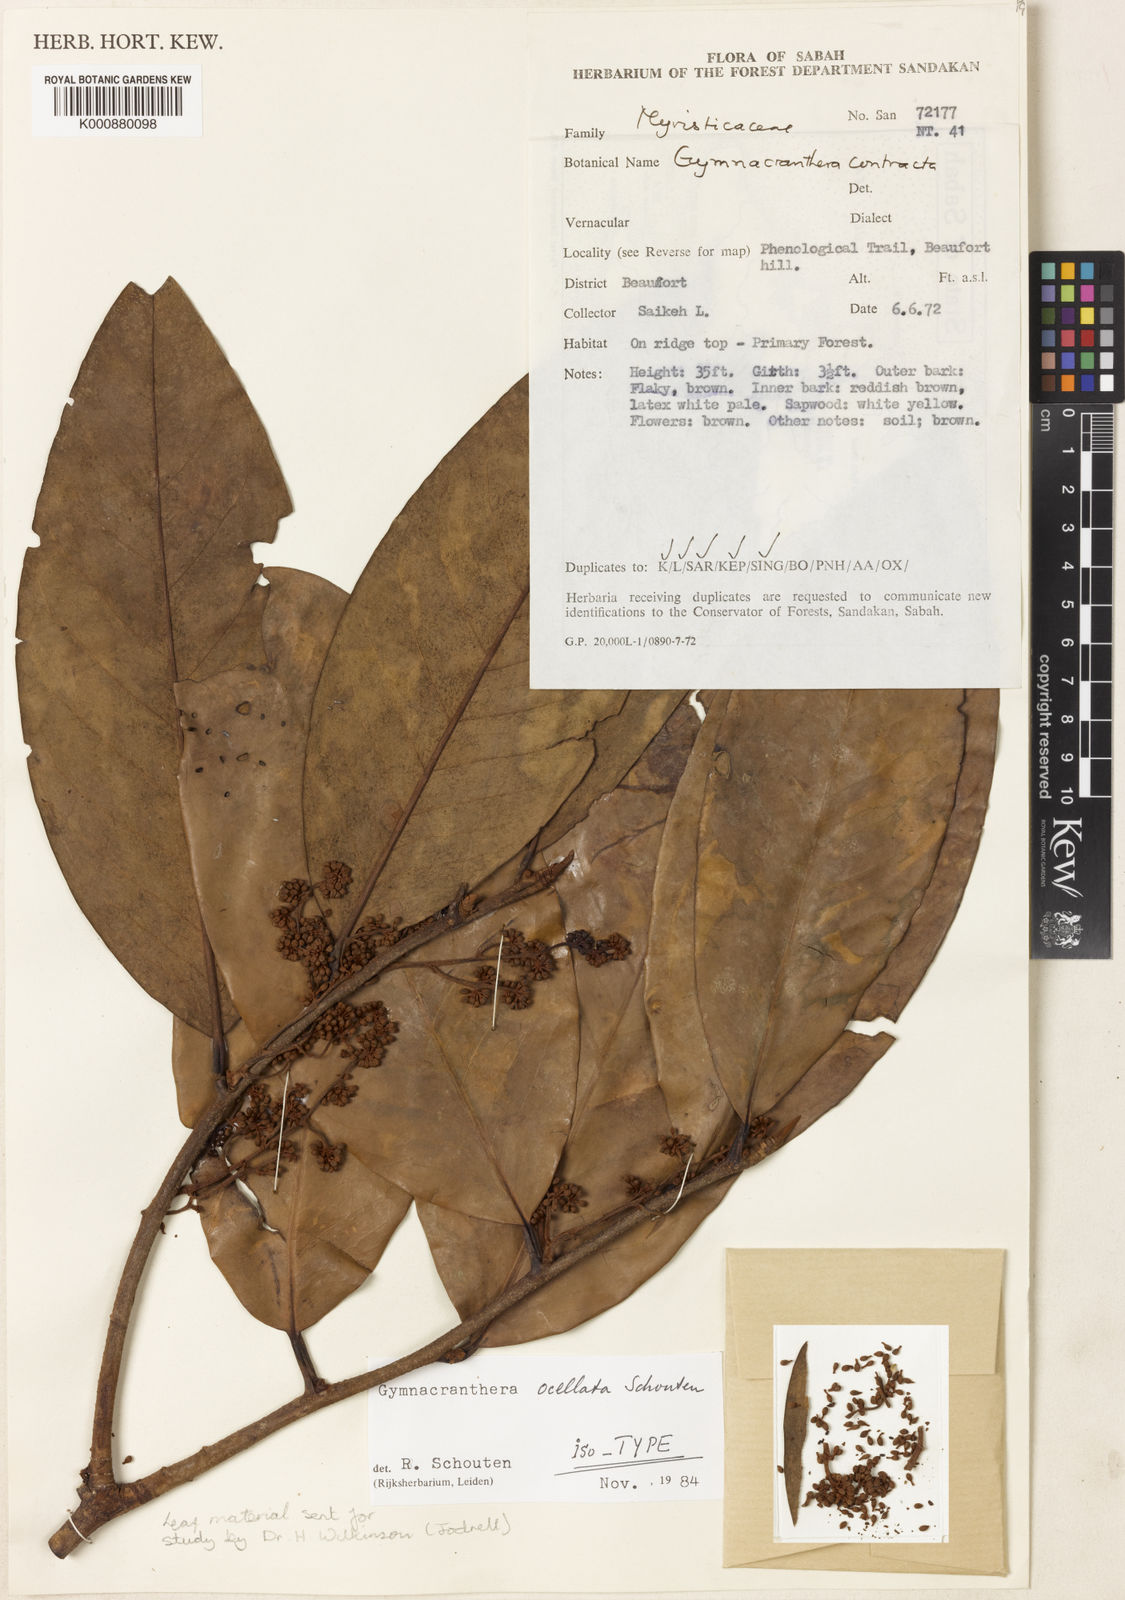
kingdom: Plantae
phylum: Tracheophyta
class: Magnoliopsida
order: Magnoliales
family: Myristicaceae
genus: Gymnacranthera
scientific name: Gymnacranthera ocellata
